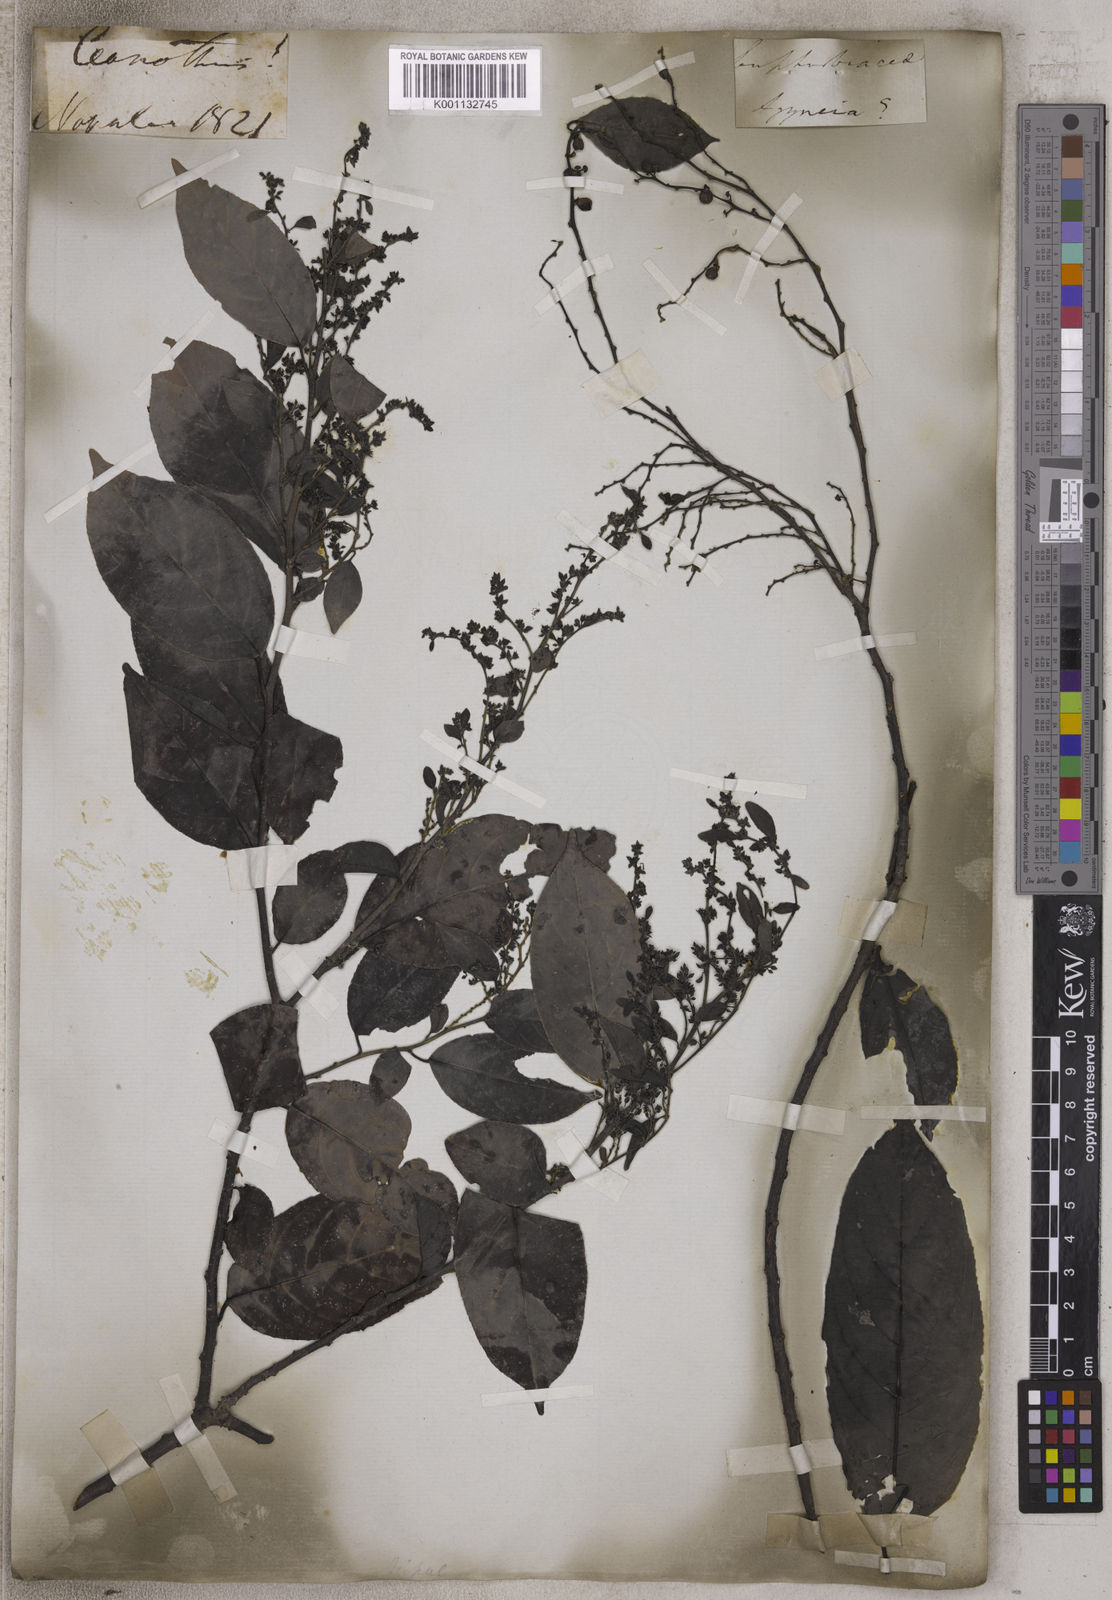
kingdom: Plantae
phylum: Tracheophyta
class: Magnoliopsida
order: Rosales
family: Rhamnaceae
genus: Ceanothus
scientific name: Ceanothus
